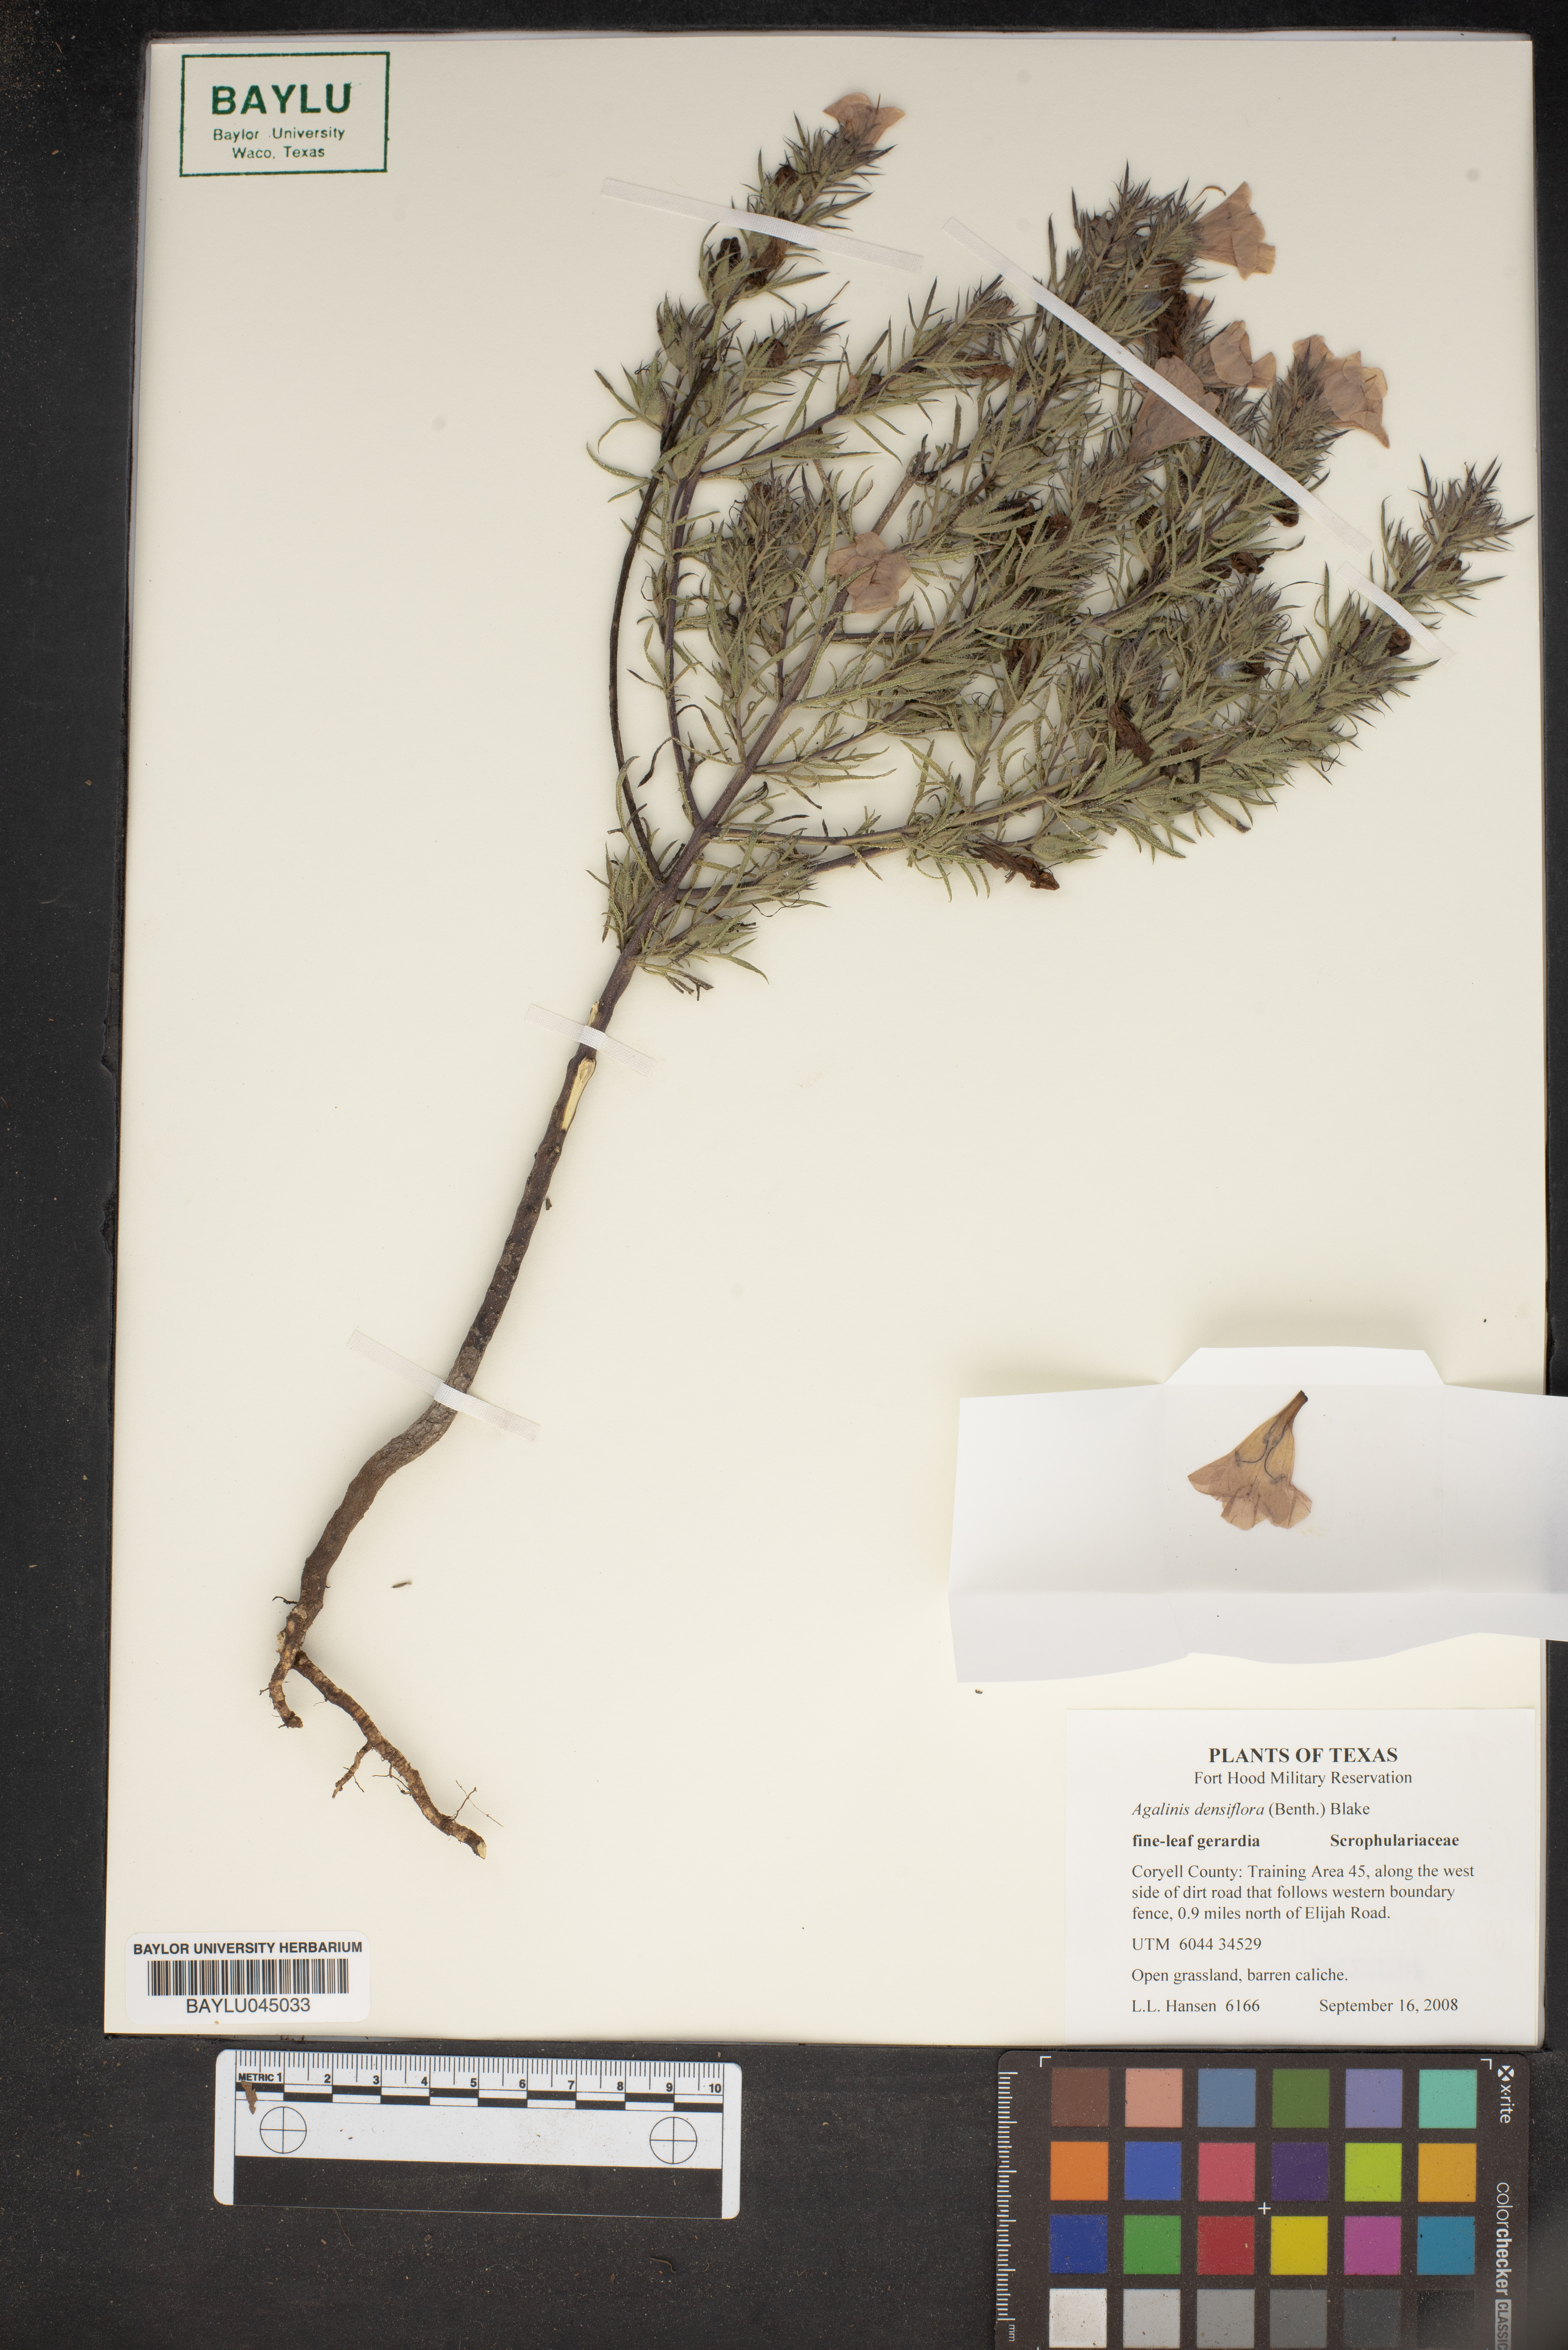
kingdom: Plantae
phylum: Tracheophyta
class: Magnoliopsida
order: Lamiales
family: Orobanchaceae
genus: Agalinis
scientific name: Agalinis densiflora
